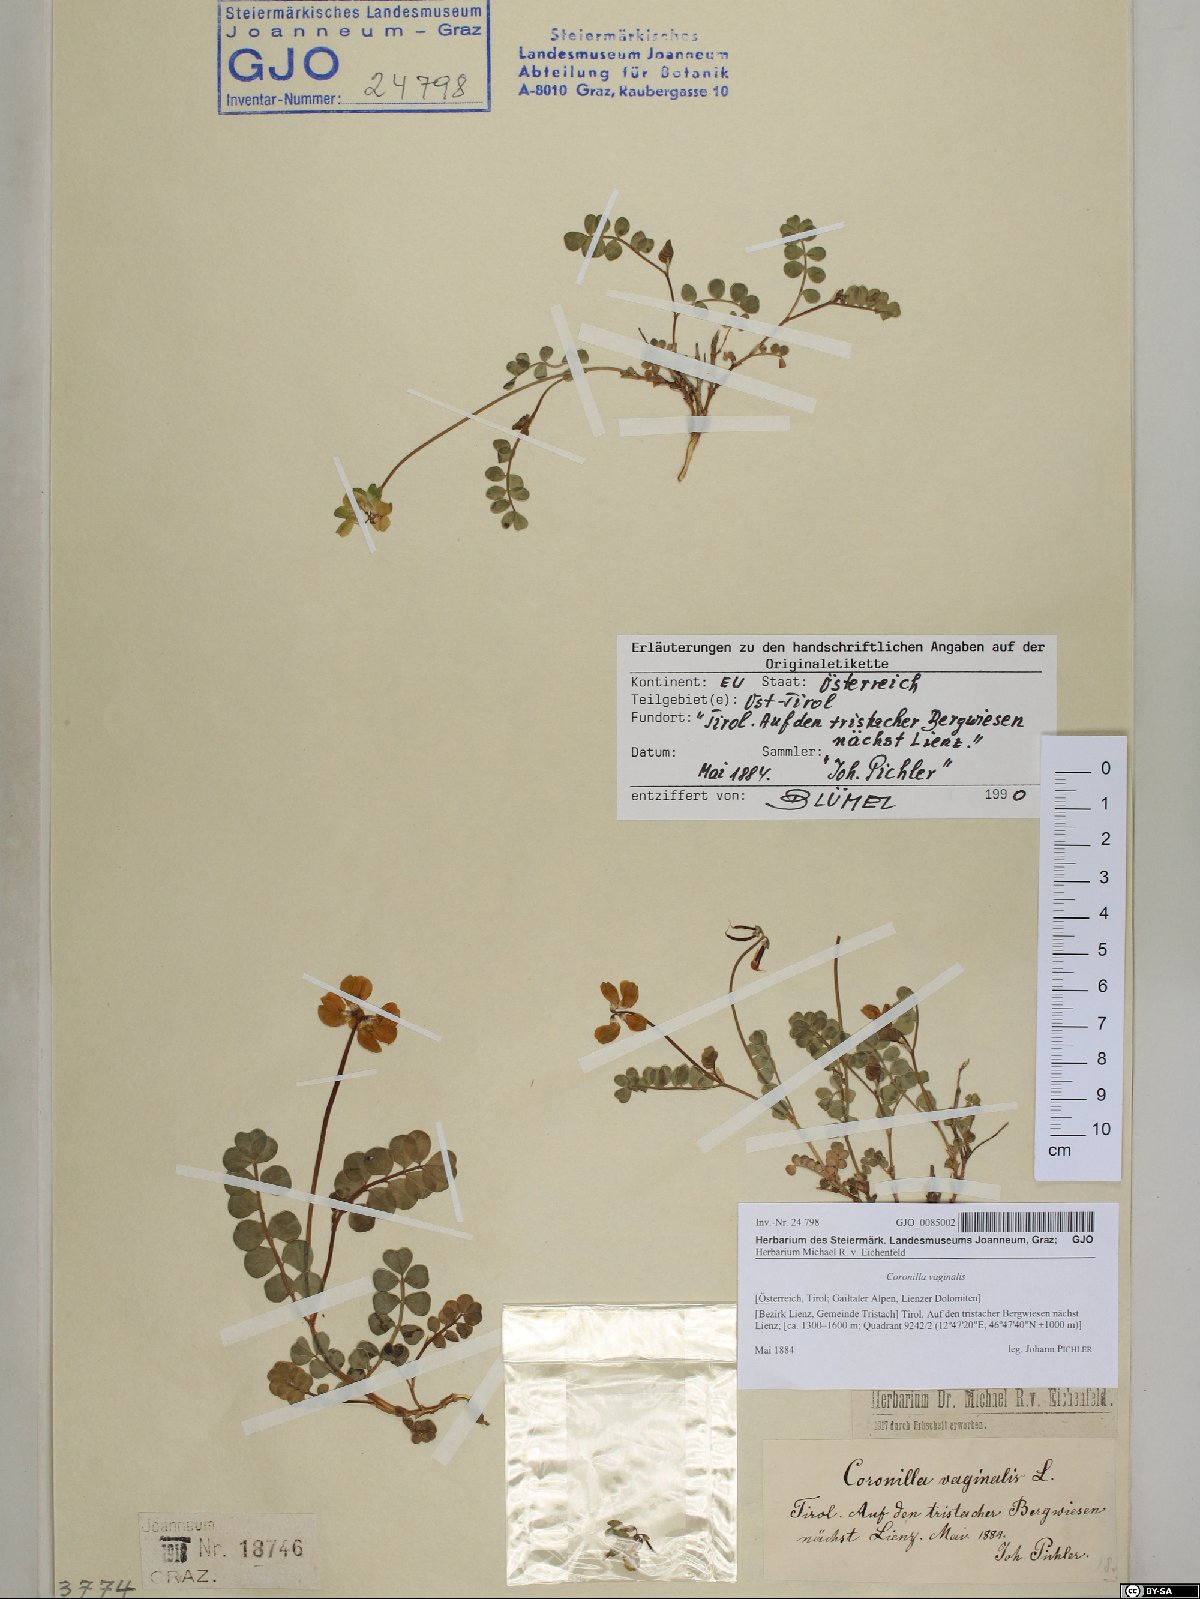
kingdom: Plantae
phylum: Tracheophyta
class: Magnoliopsida
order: Fabales
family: Fabaceae
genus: Coronilla
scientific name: Coronilla vaginalis
